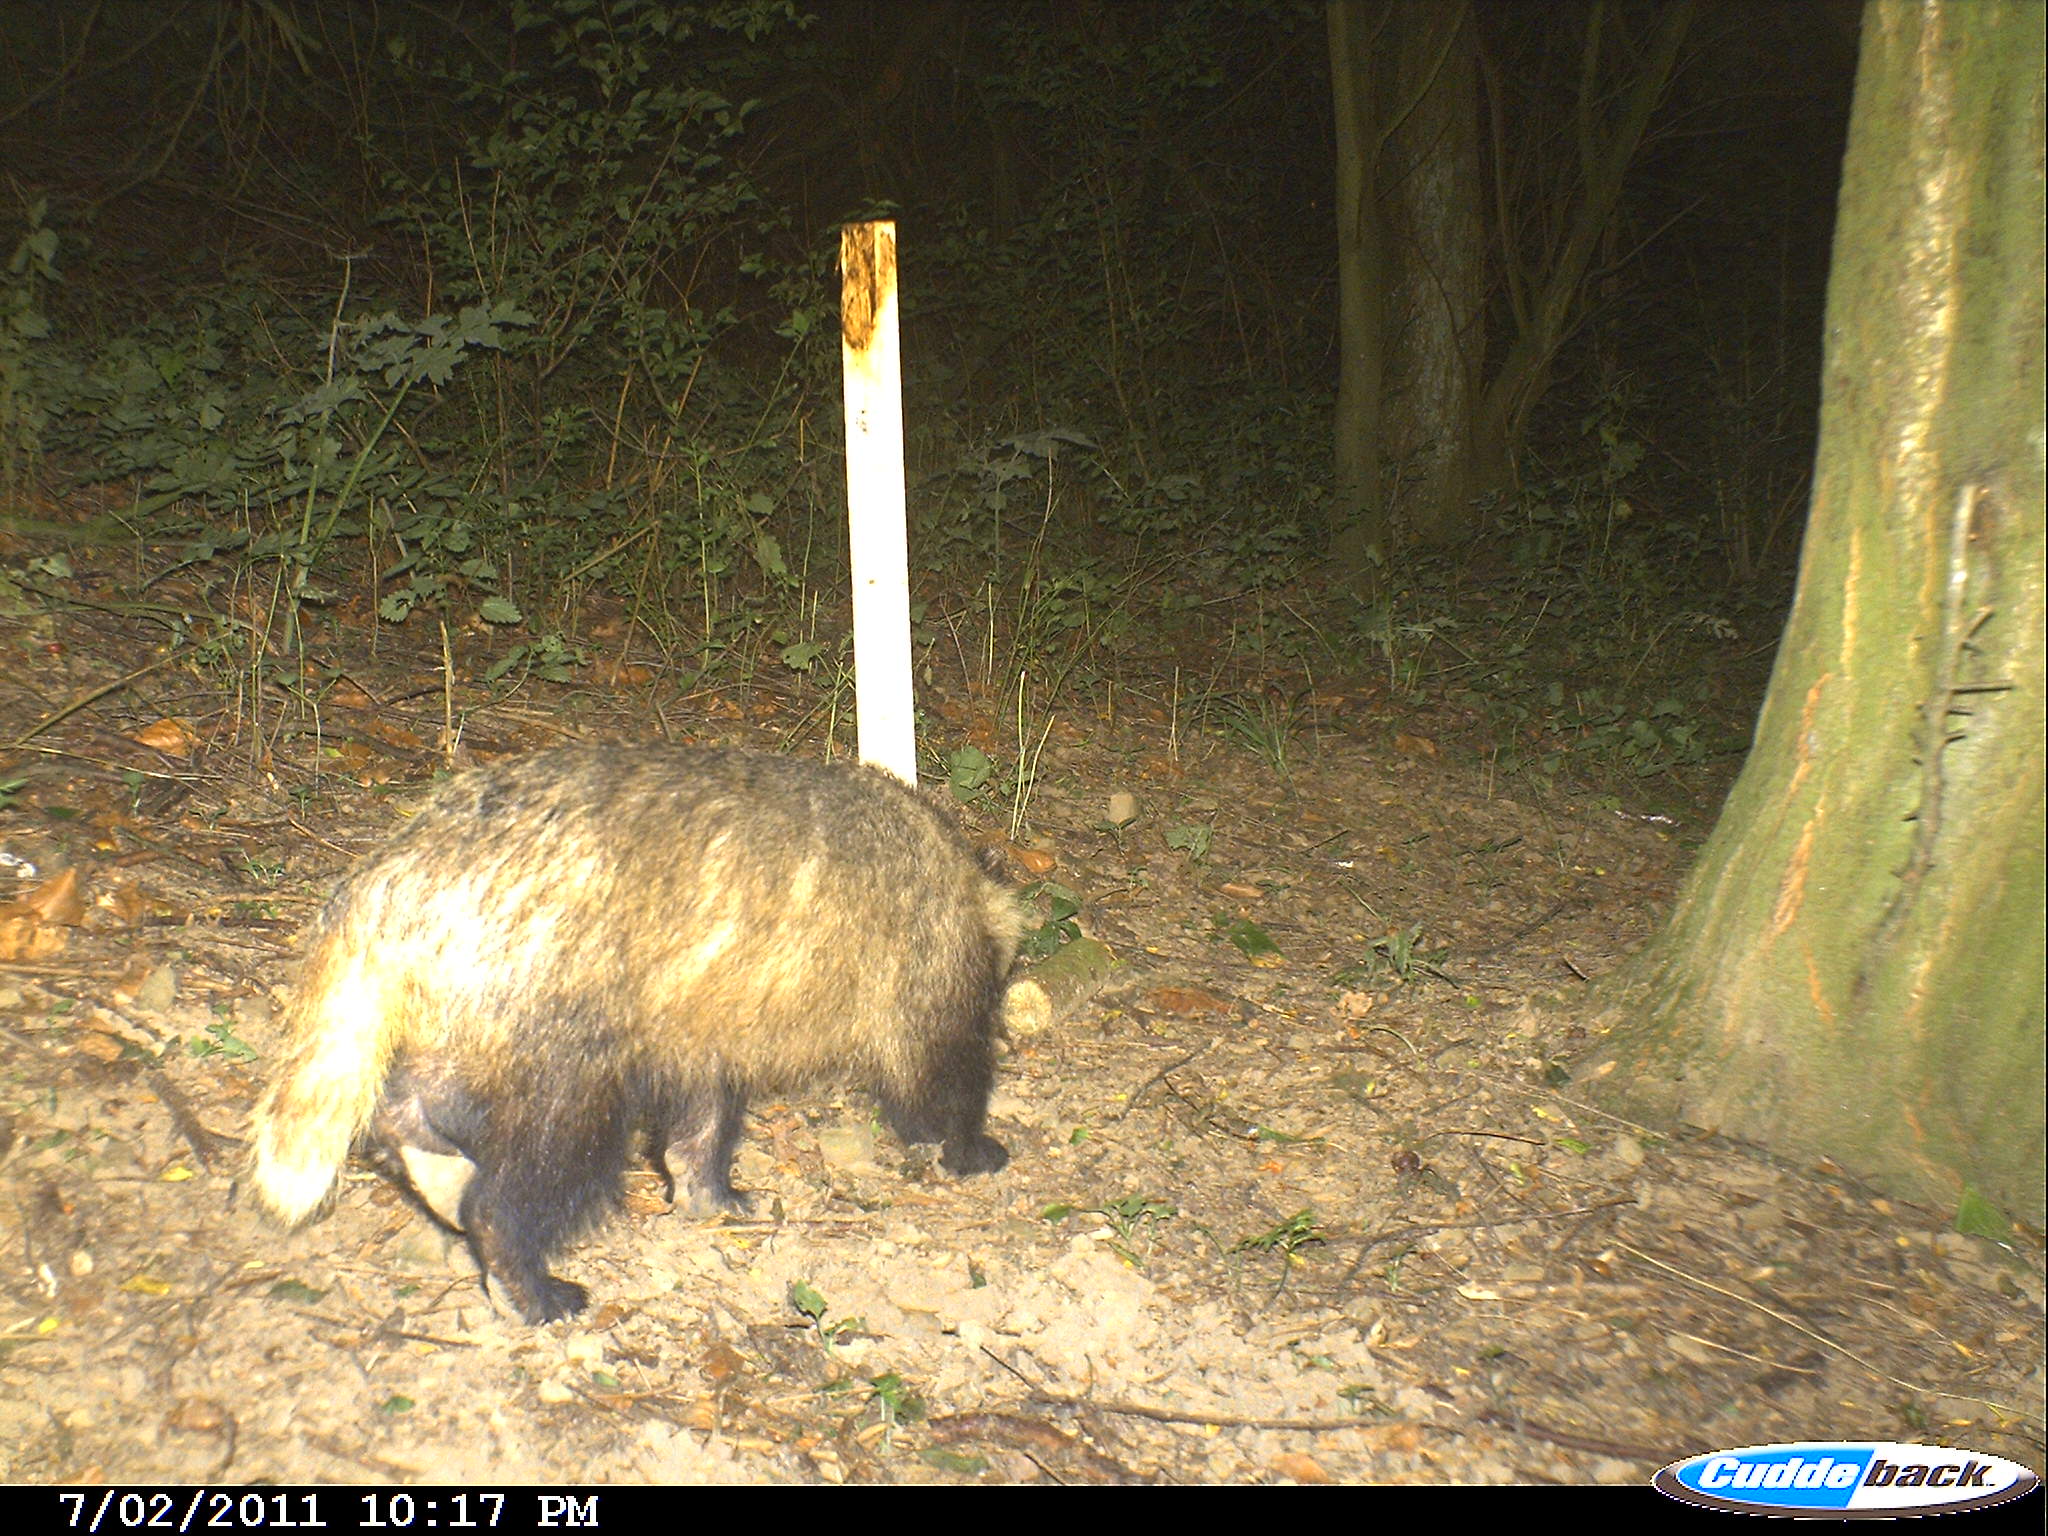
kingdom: Animalia
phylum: Chordata
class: Mammalia
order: Carnivora
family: Mustelidae
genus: Meles
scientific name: Meles meles
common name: Eurasian badger
